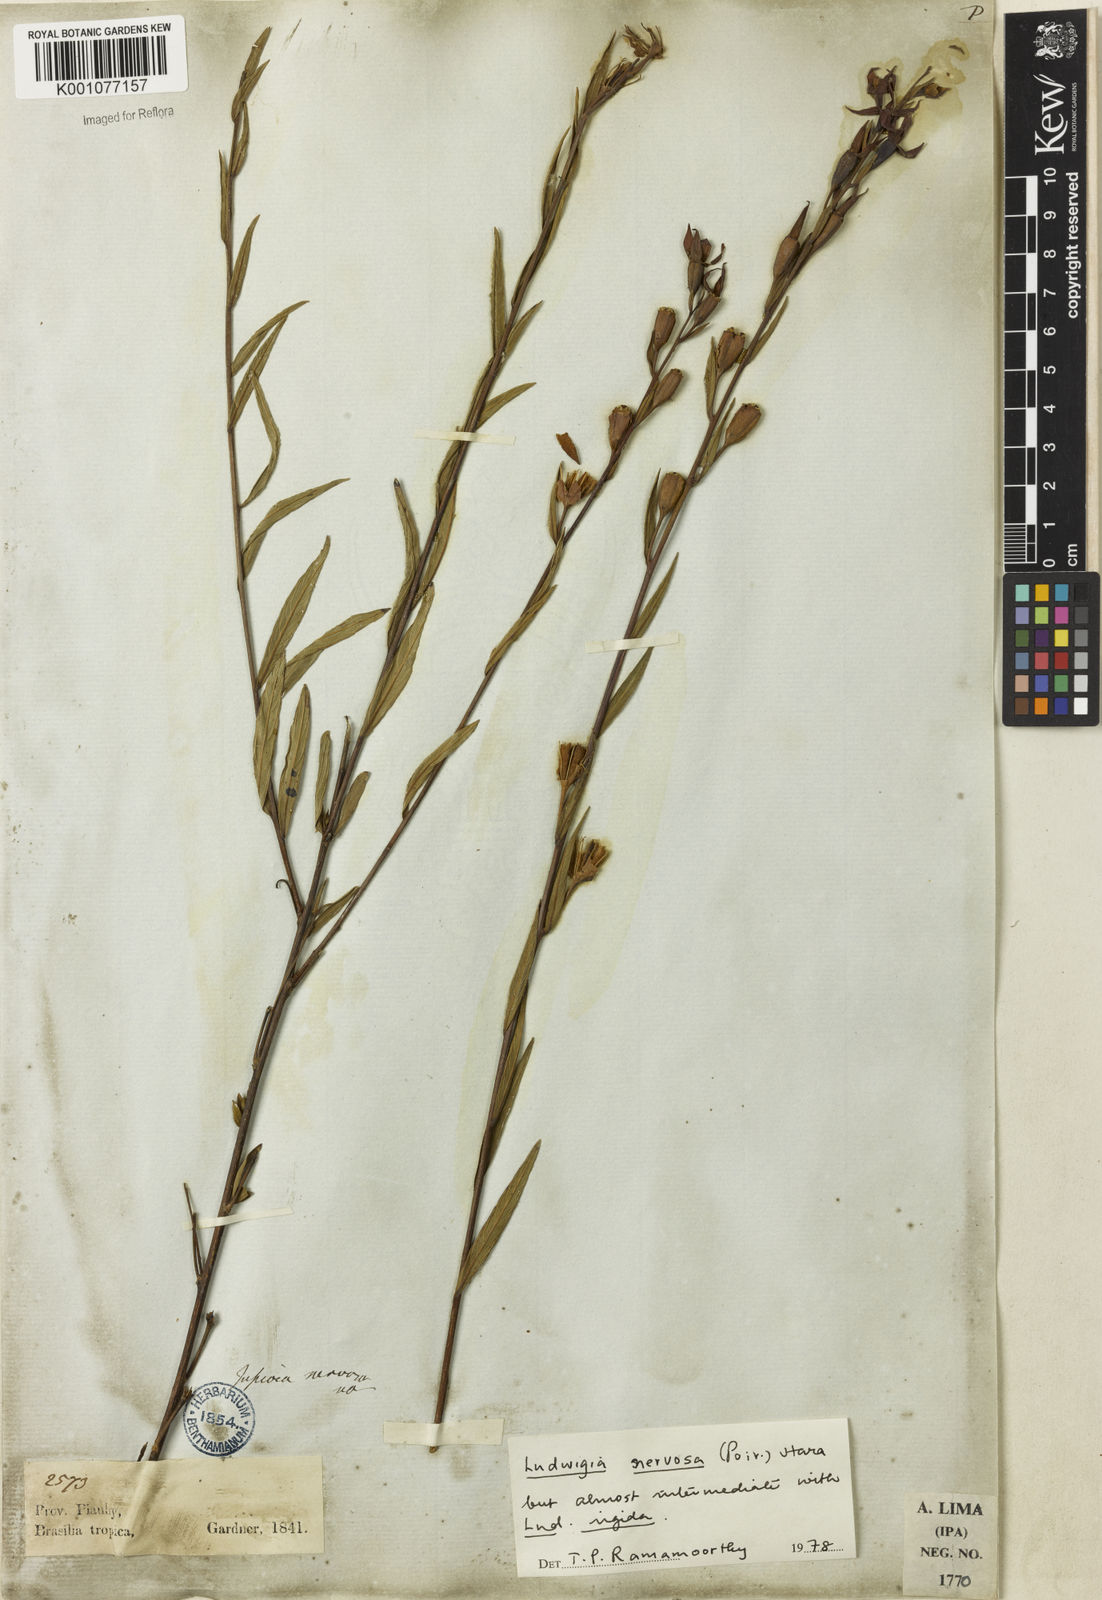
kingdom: Plantae
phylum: Tracheophyta
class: Magnoliopsida
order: Myrtales
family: Onagraceae
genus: Ludwigia
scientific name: Ludwigia nervosa
